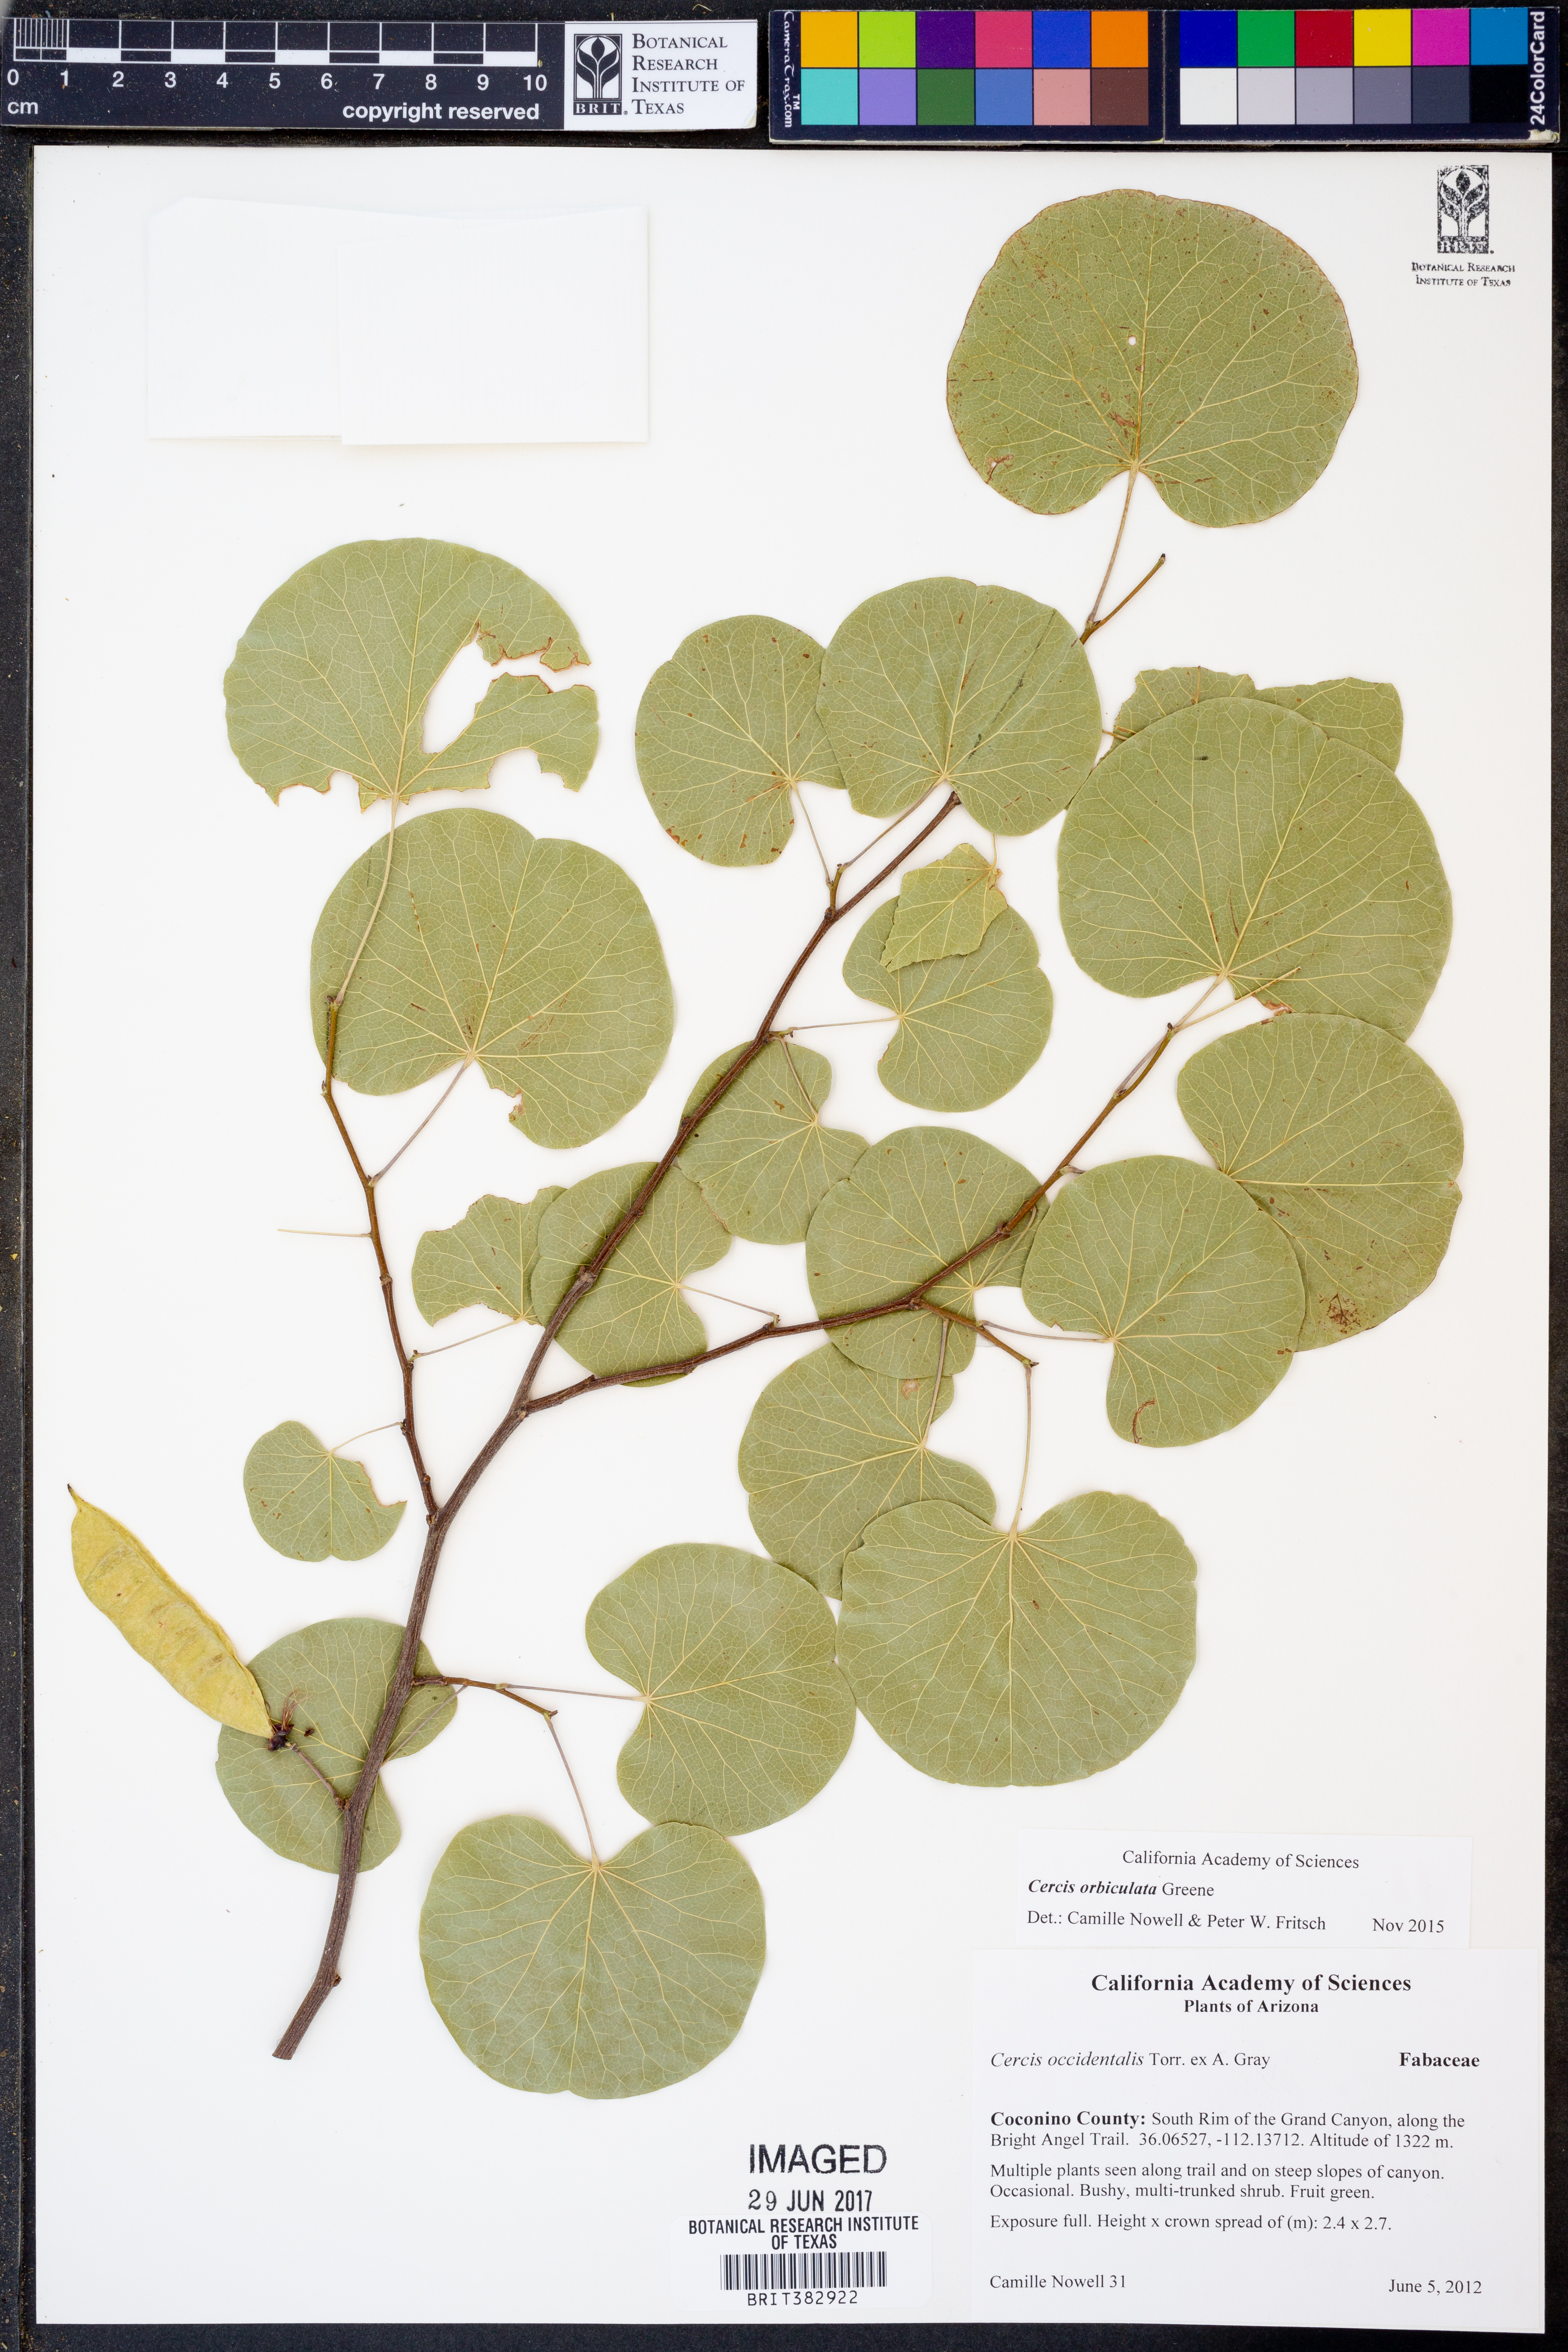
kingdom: Plantae
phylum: Tracheophyta
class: Magnoliopsida
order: Fabales
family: Fabaceae
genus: Cercis
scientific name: Cercis orbiculata
